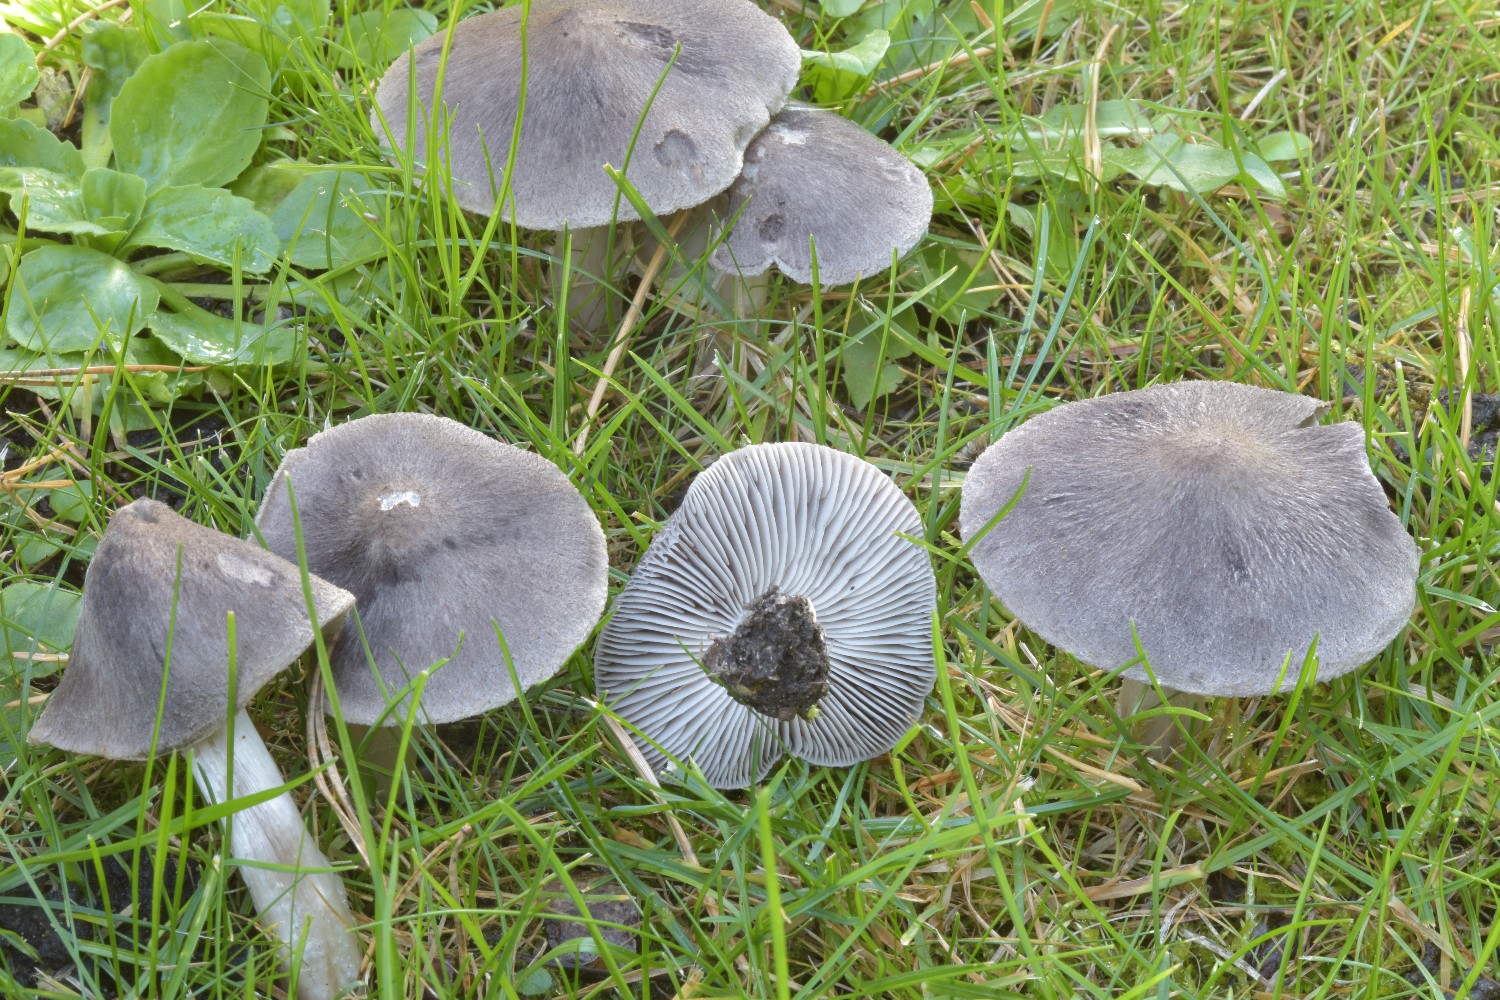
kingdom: Fungi
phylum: Basidiomycota
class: Agaricomycetes
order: Agaricales
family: Tricholomataceae
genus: Tricholoma
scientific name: Tricholoma terreum
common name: jordfarvet ridderhat
